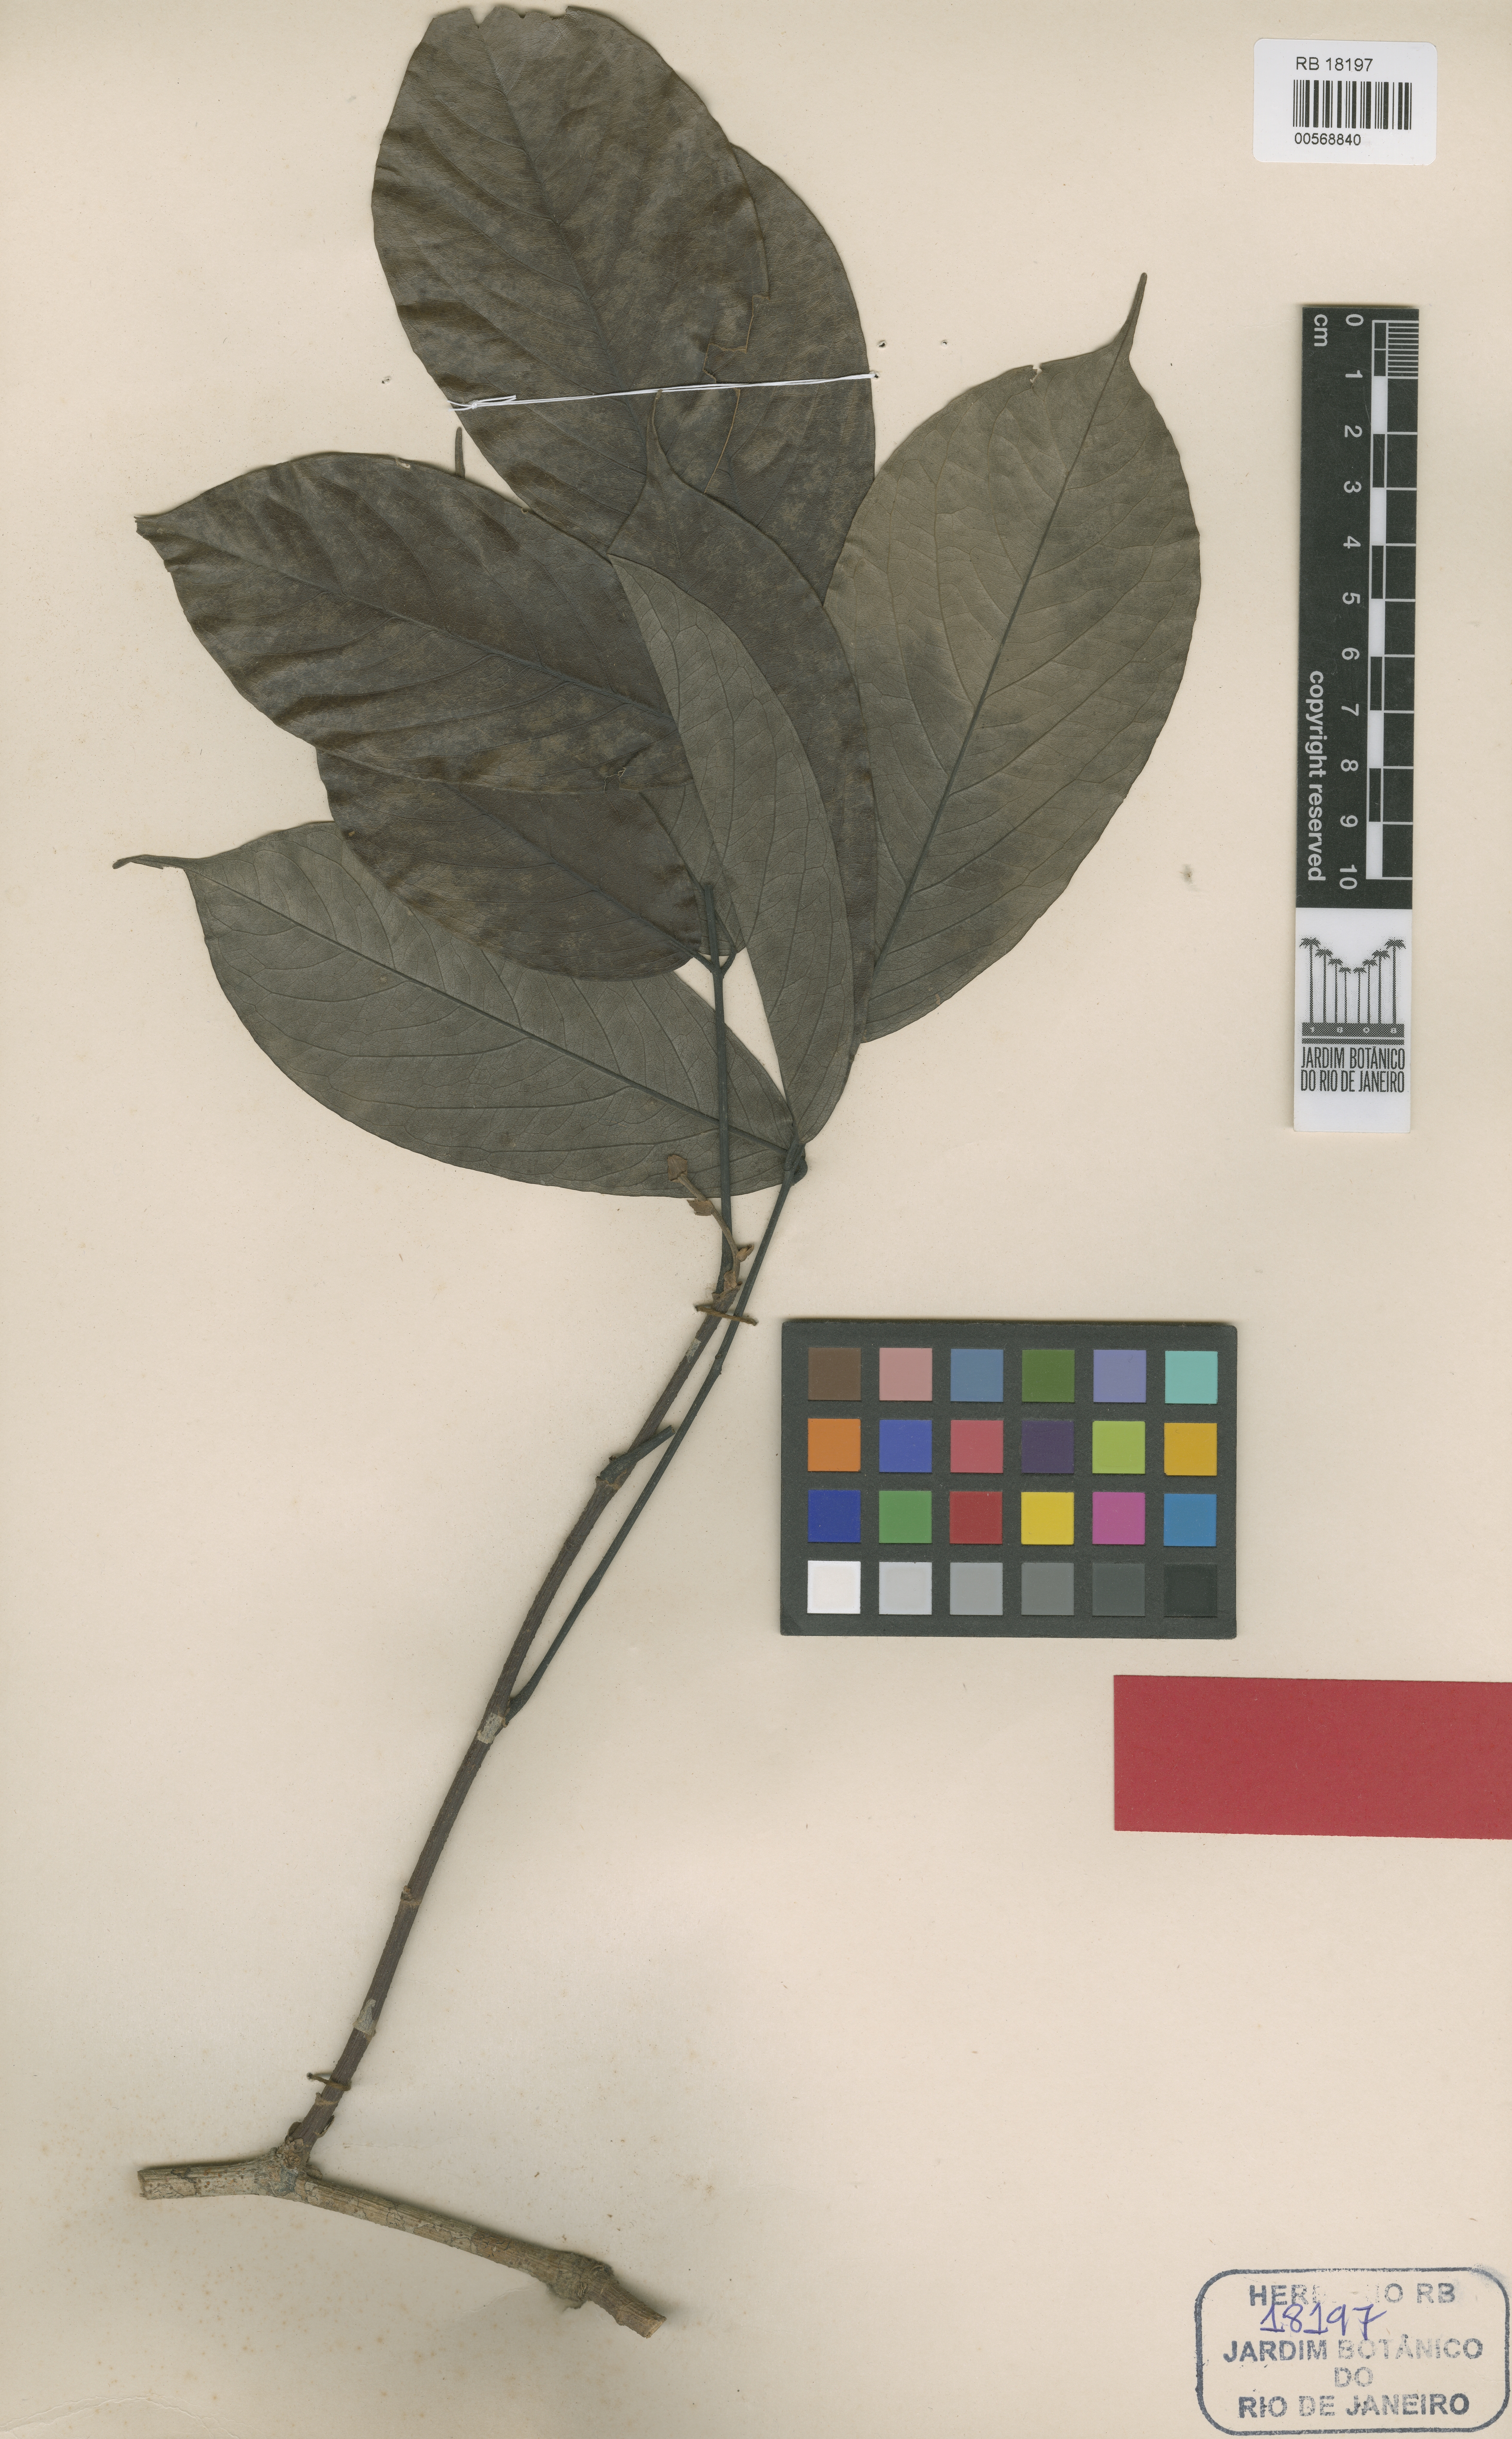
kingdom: Plantae
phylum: Tracheophyta
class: Magnoliopsida
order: Fabales
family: Fabaceae
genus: Machaerium
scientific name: Machaerium cuspidatum
